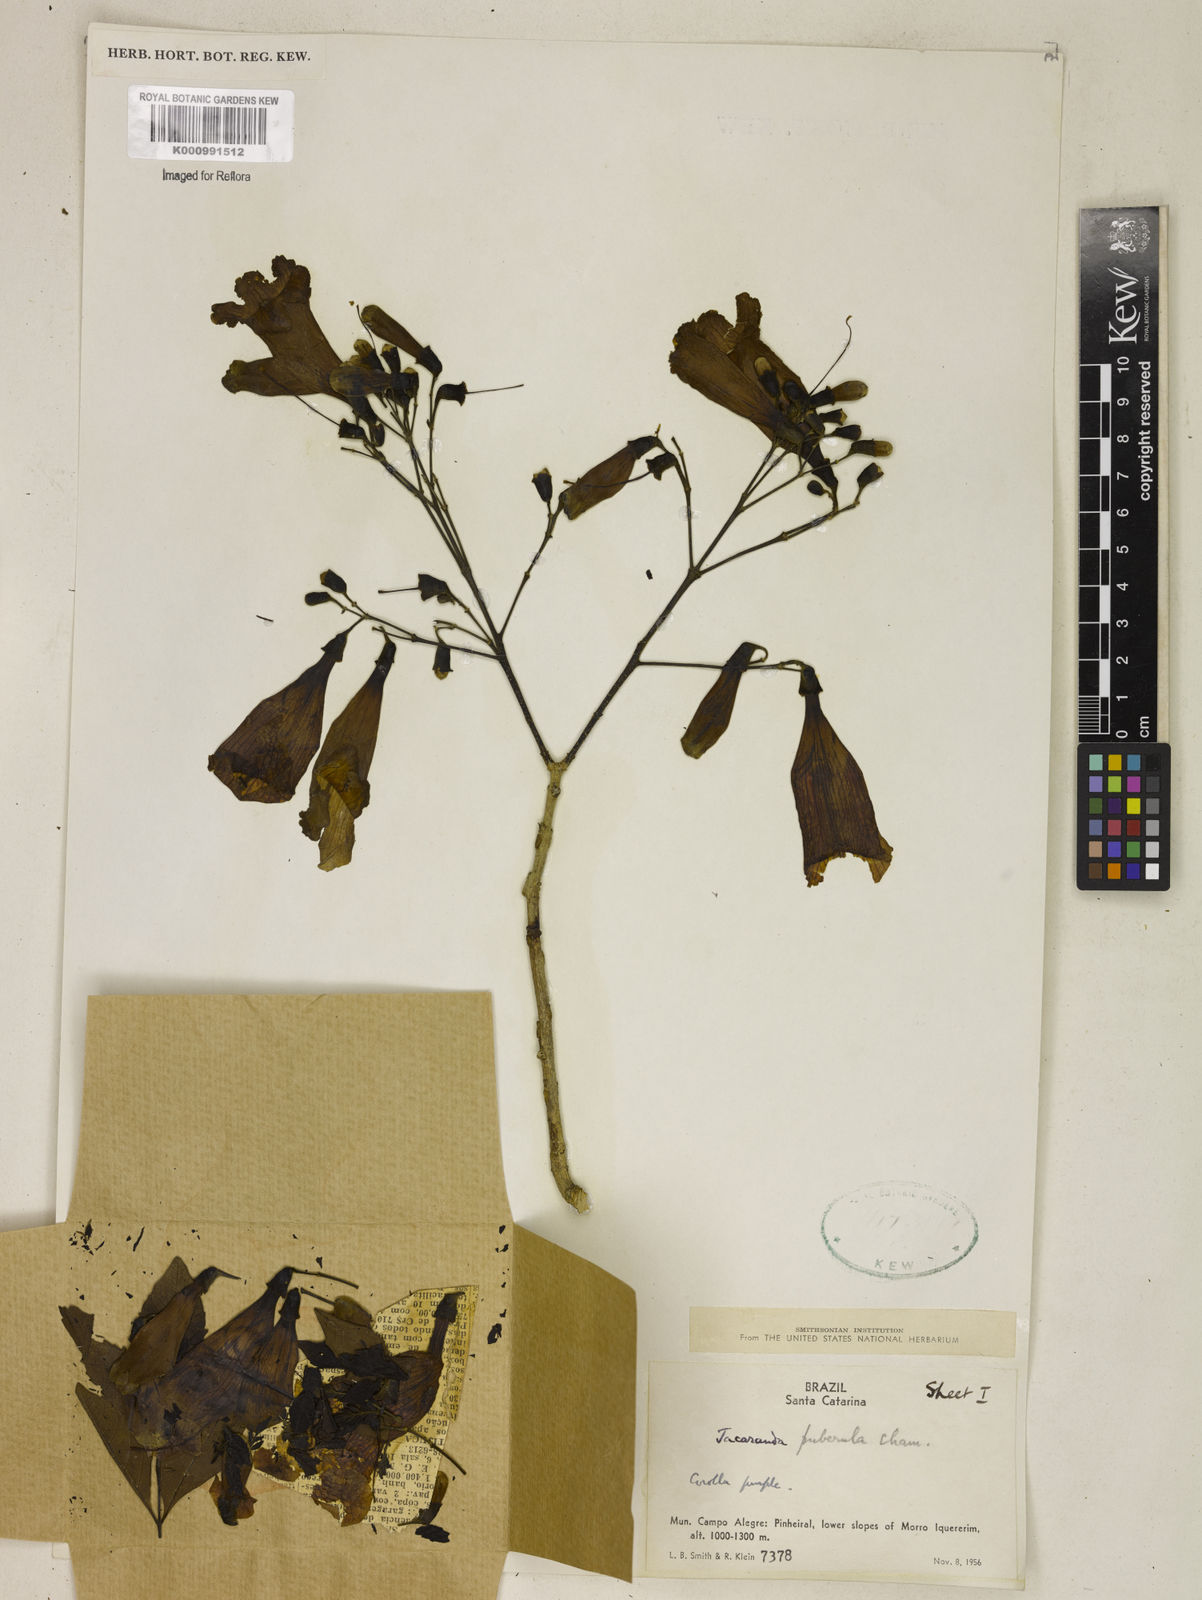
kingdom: Plantae
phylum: Tracheophyta
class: Magnoliopsida
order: Lamiales
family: Bignoniaceae
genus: Jacaranda
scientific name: Jacaranda puberula
